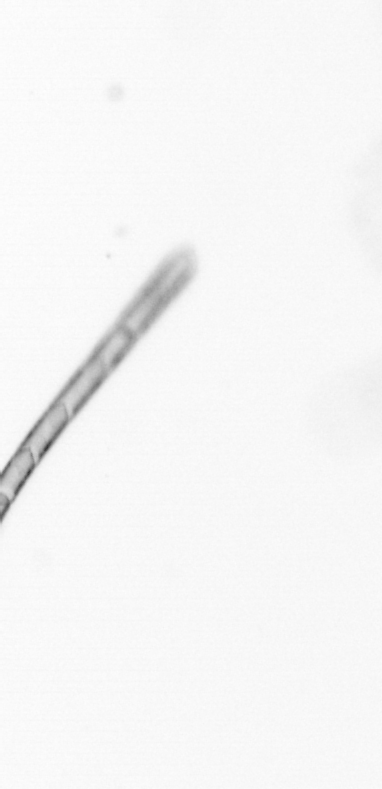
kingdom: Chromista
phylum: Ochrophyta
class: Bacillariophyceae
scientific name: Bacillariophyceae
